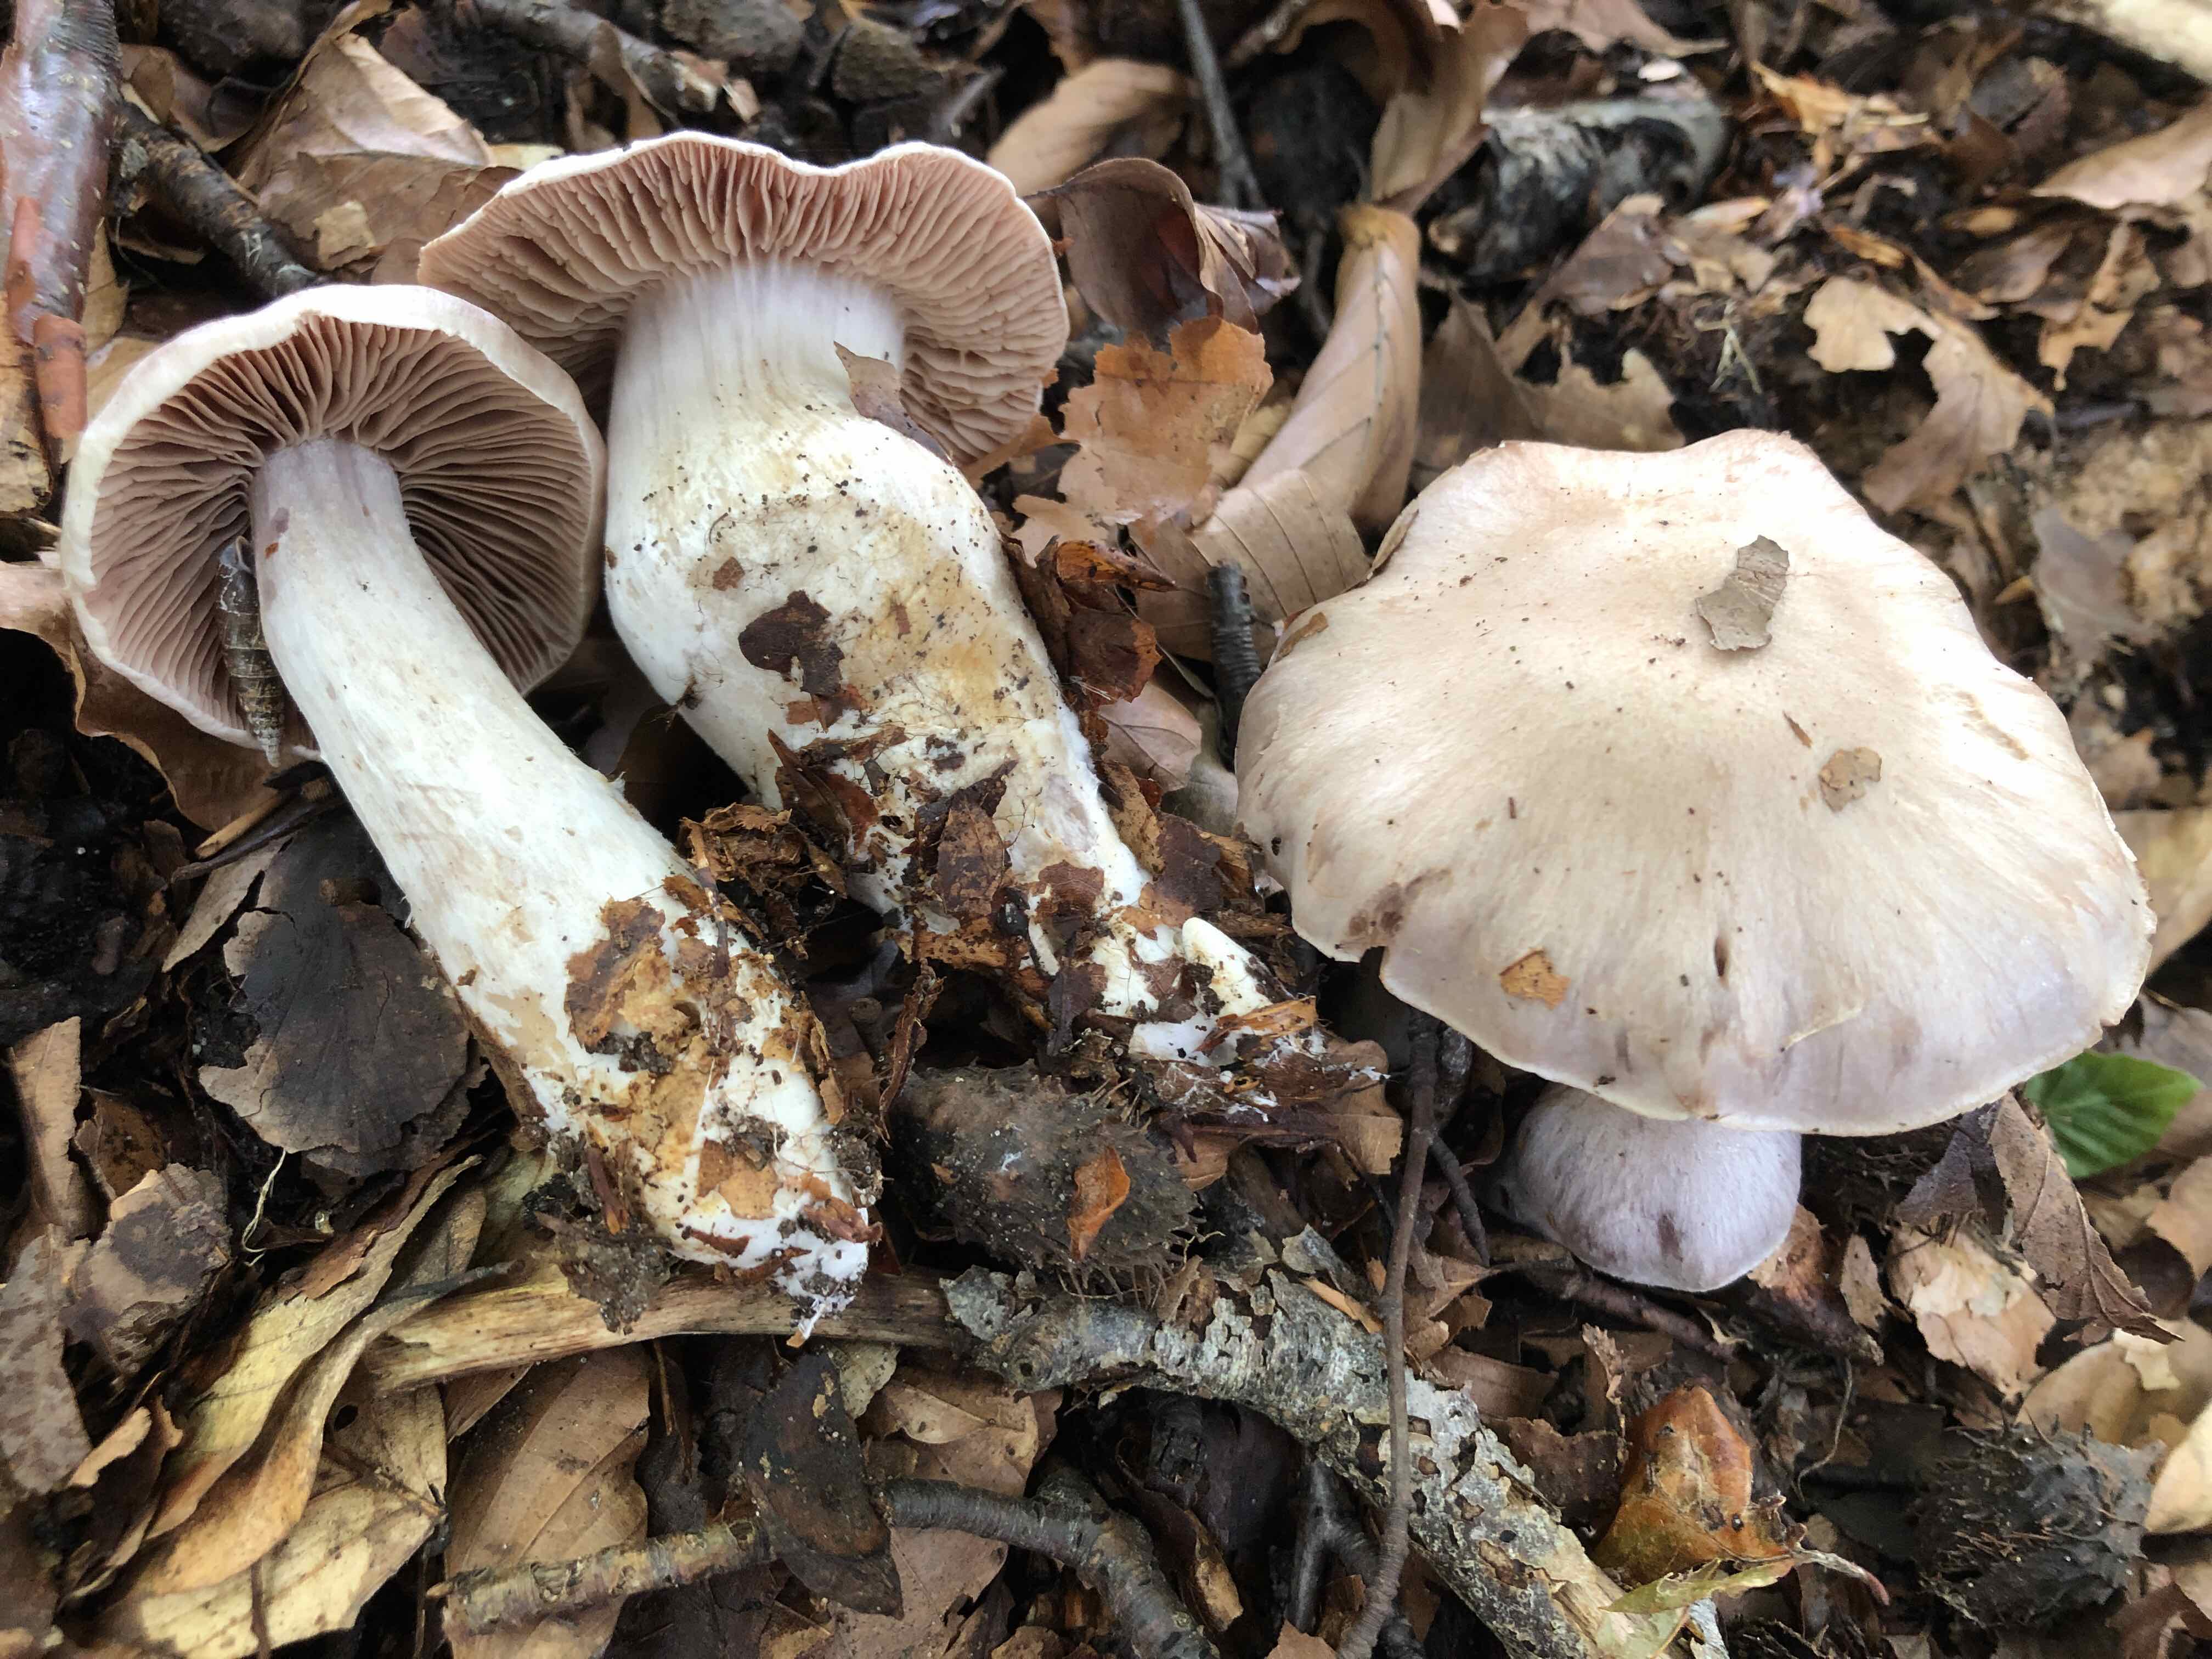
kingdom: Fungi
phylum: Basidiomycota
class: Agaricomycetes
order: Agaricales
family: Cortinariaceae
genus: Cortinarius
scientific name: Cortinarius turgidus
